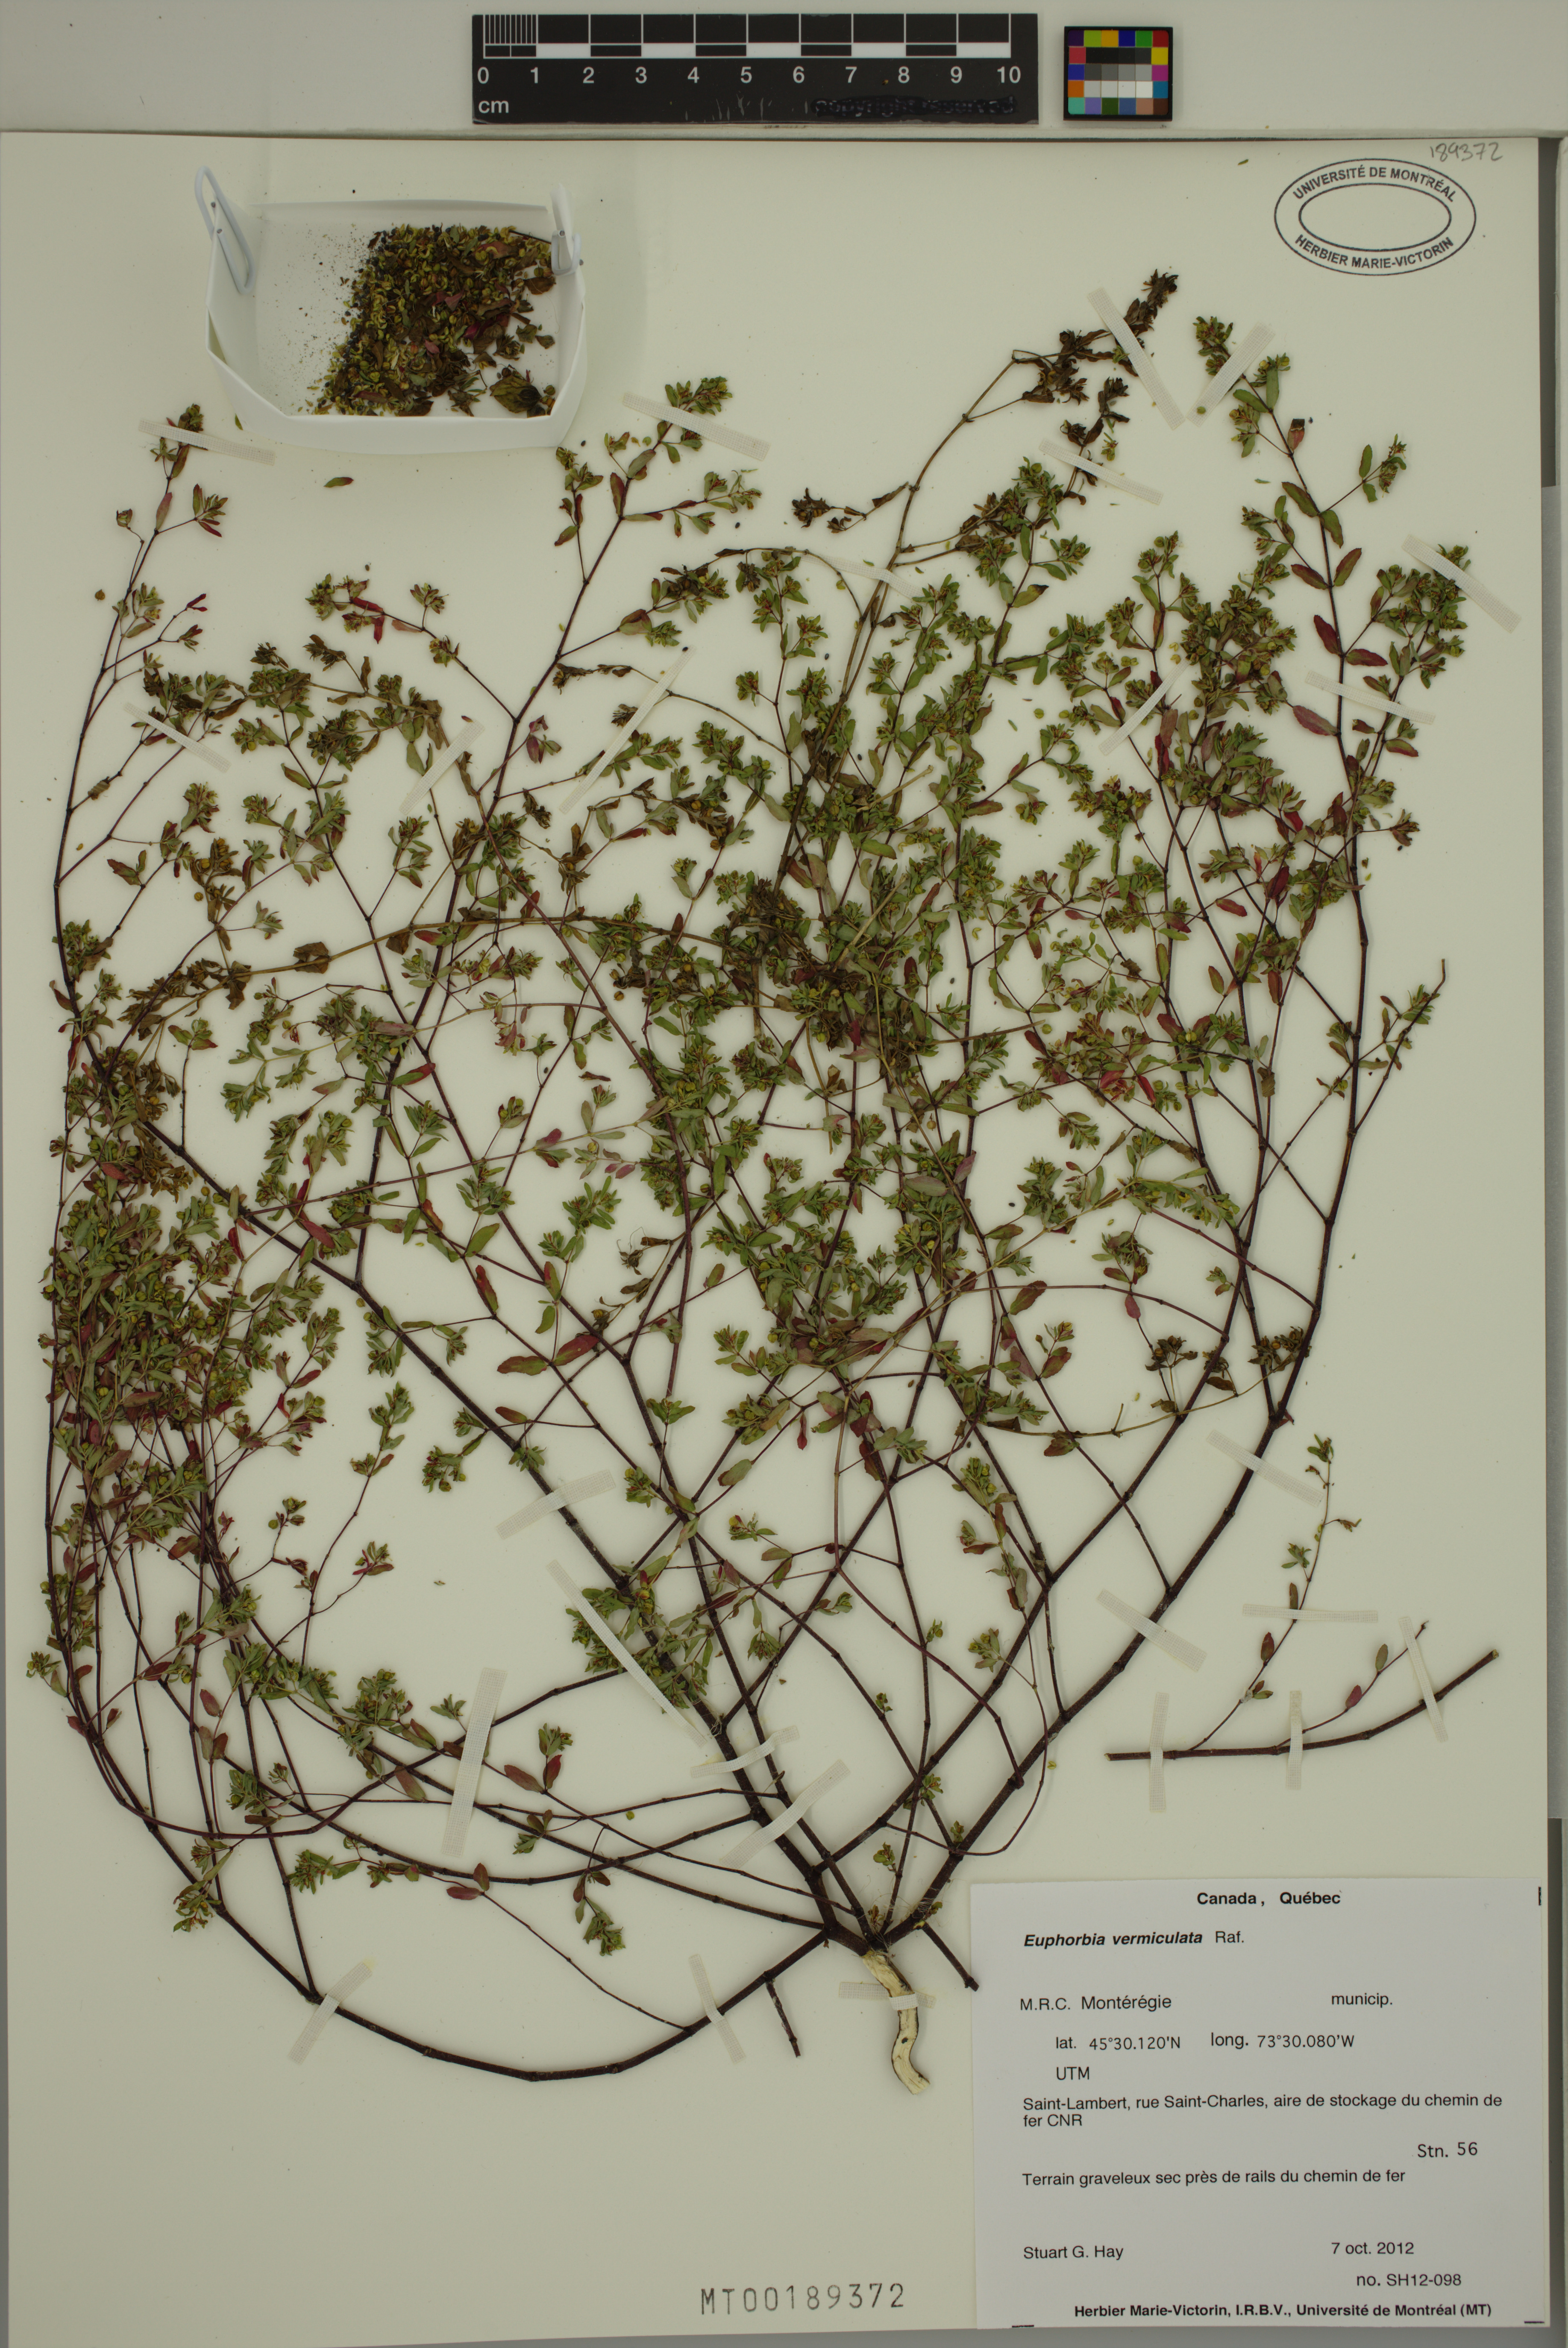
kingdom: Plantae
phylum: Tracheophyta
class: Magnoliopsida
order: Malpighiales
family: Euphorbiaceae
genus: Euphorbia
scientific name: Euphorbia vermiculata
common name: Hairy spurge
